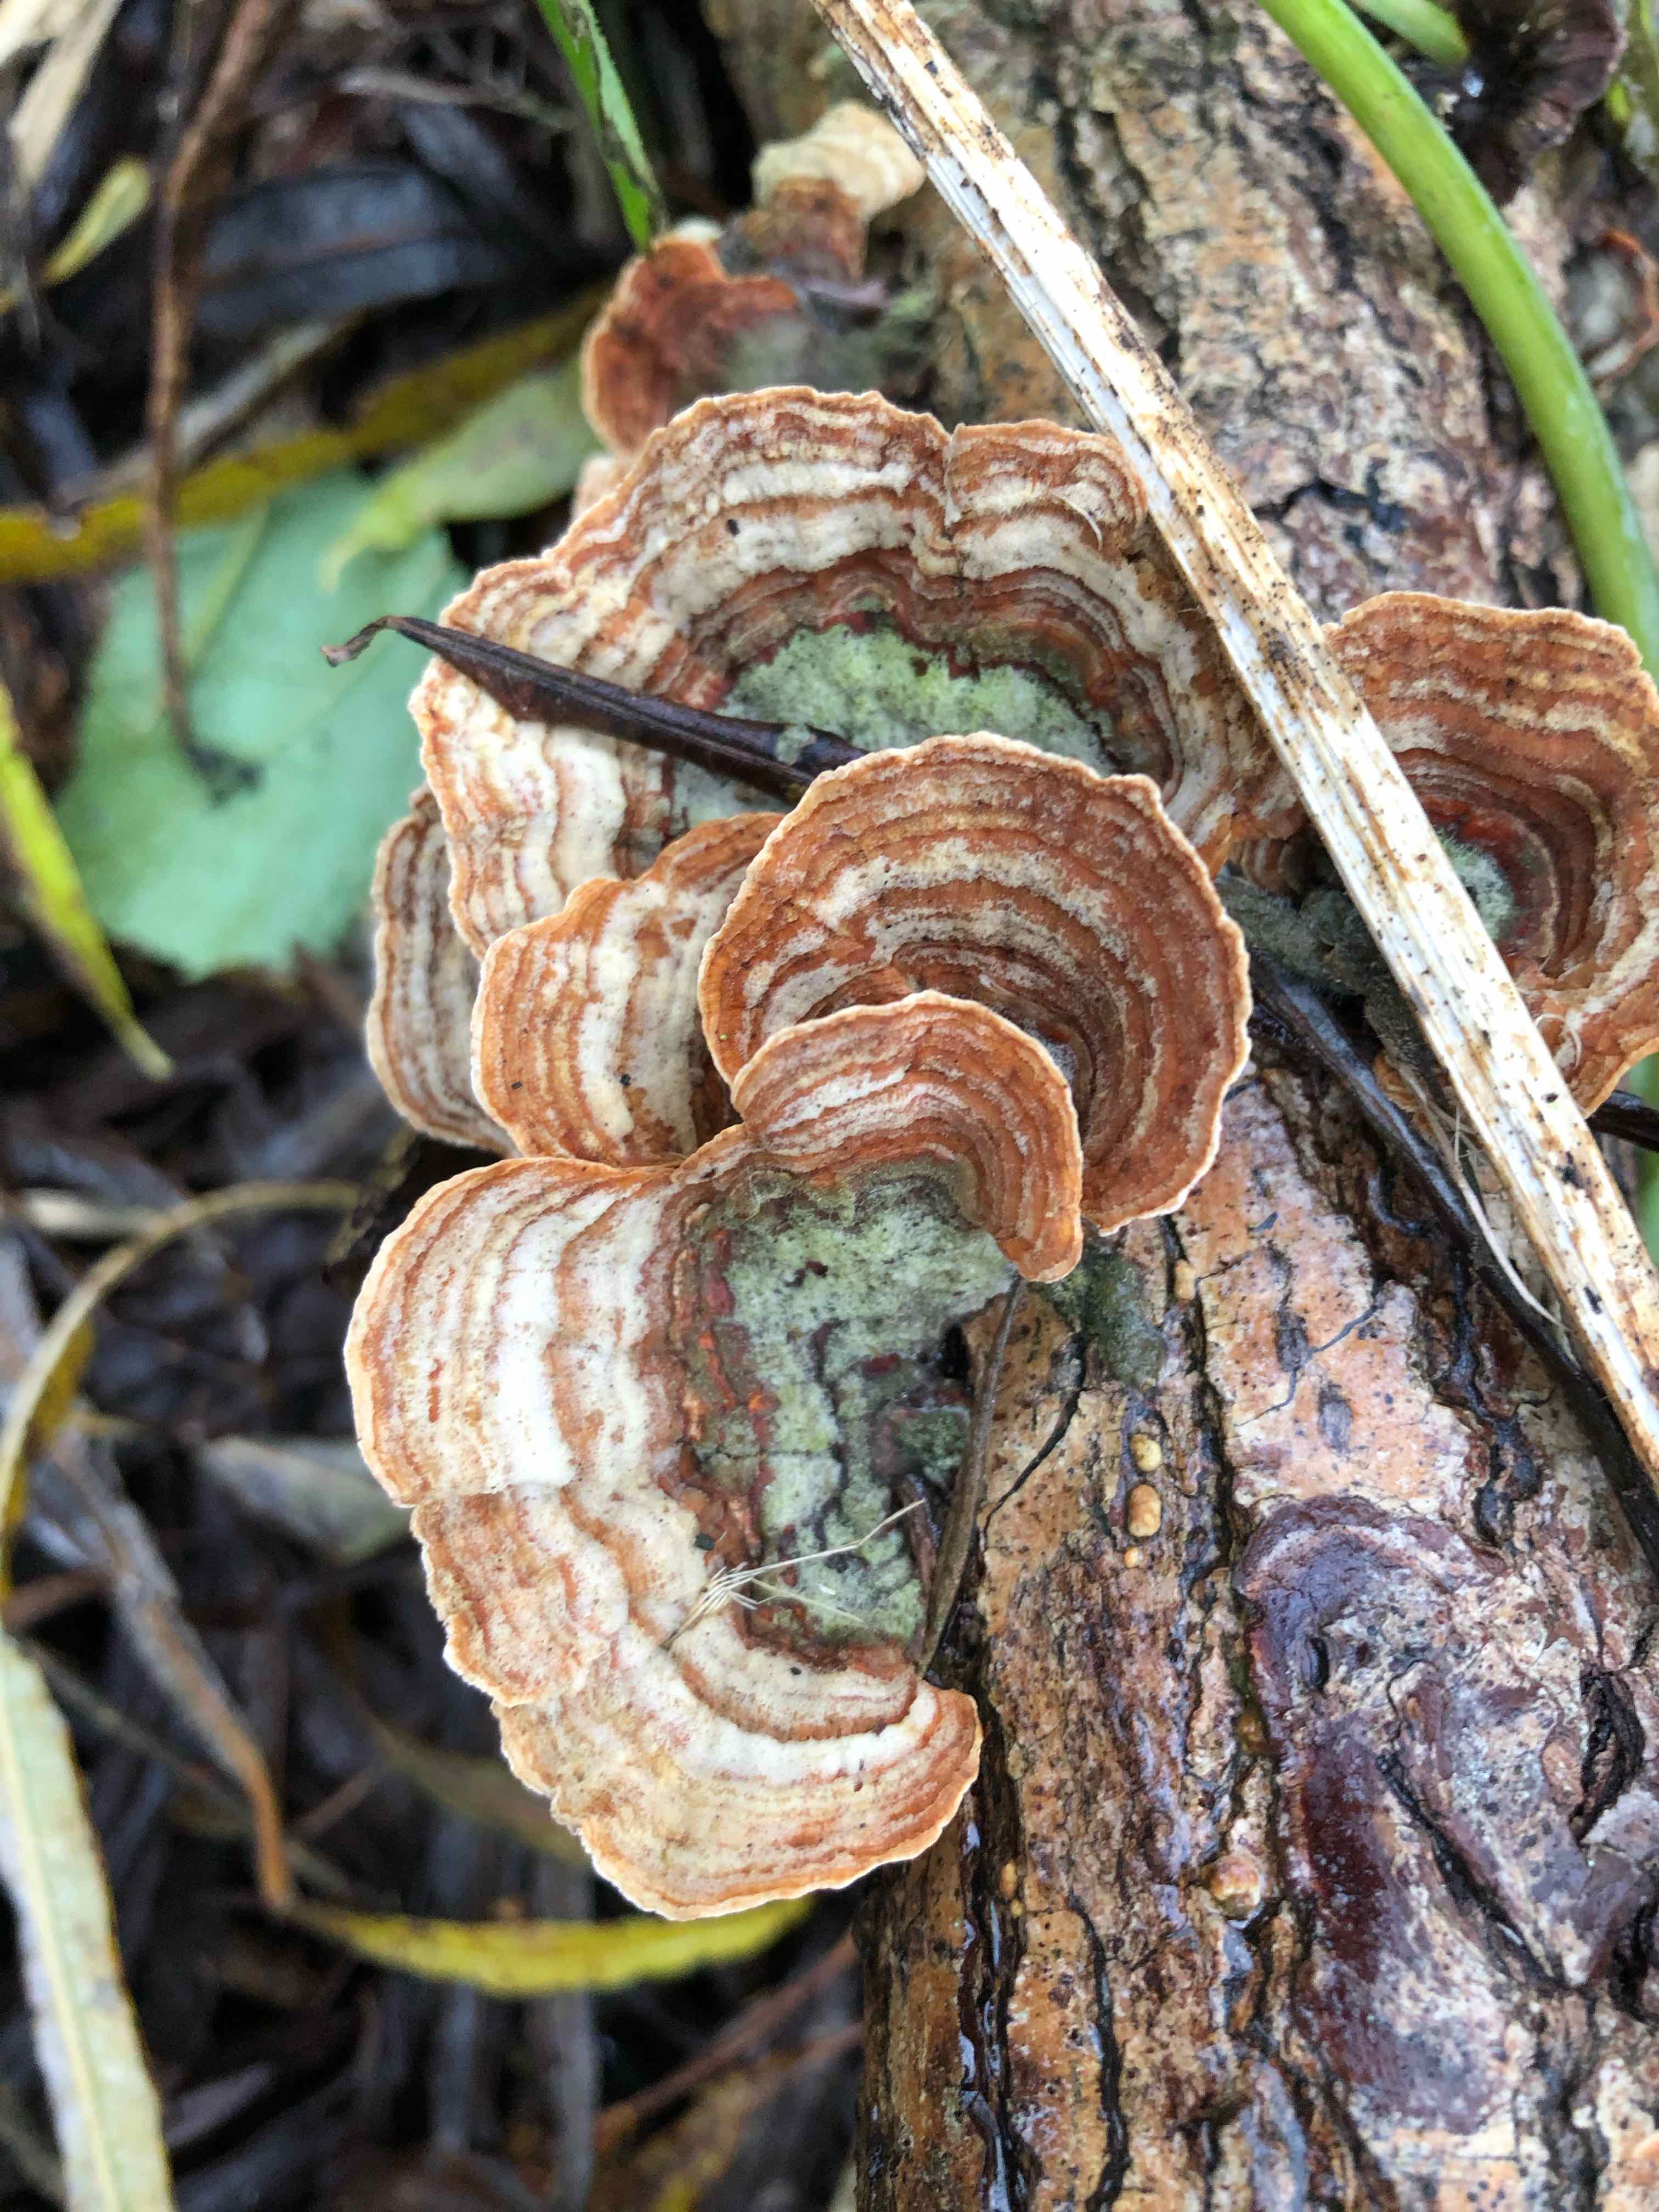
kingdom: Fungi
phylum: Basidiomycota
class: Agaricomycetes
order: Russulales
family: Stereaceae
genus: Stereum
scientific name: Stereum subtomentosum
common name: smuk lædersvamp
